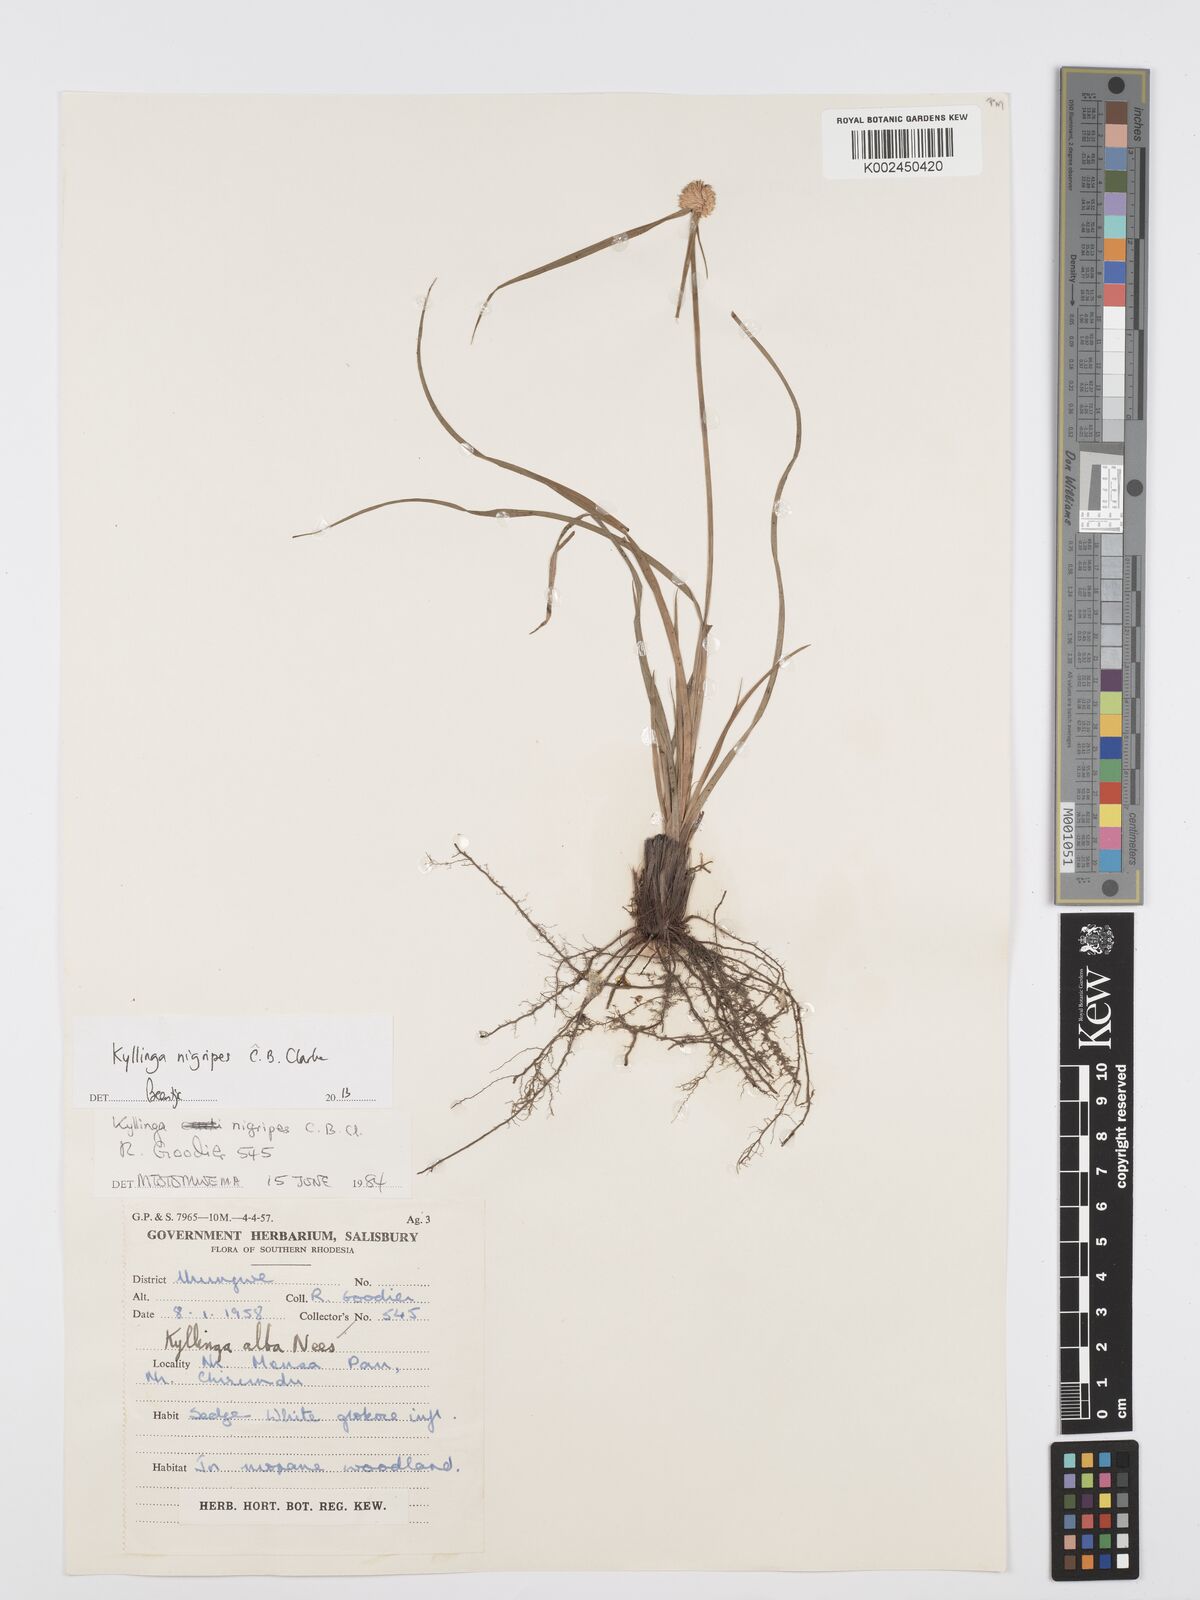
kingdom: Plantae
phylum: Tracheophyta
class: Liliopsida
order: Poales
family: Cyperaceae
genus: Cyperus
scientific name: Cyperus nigripes
